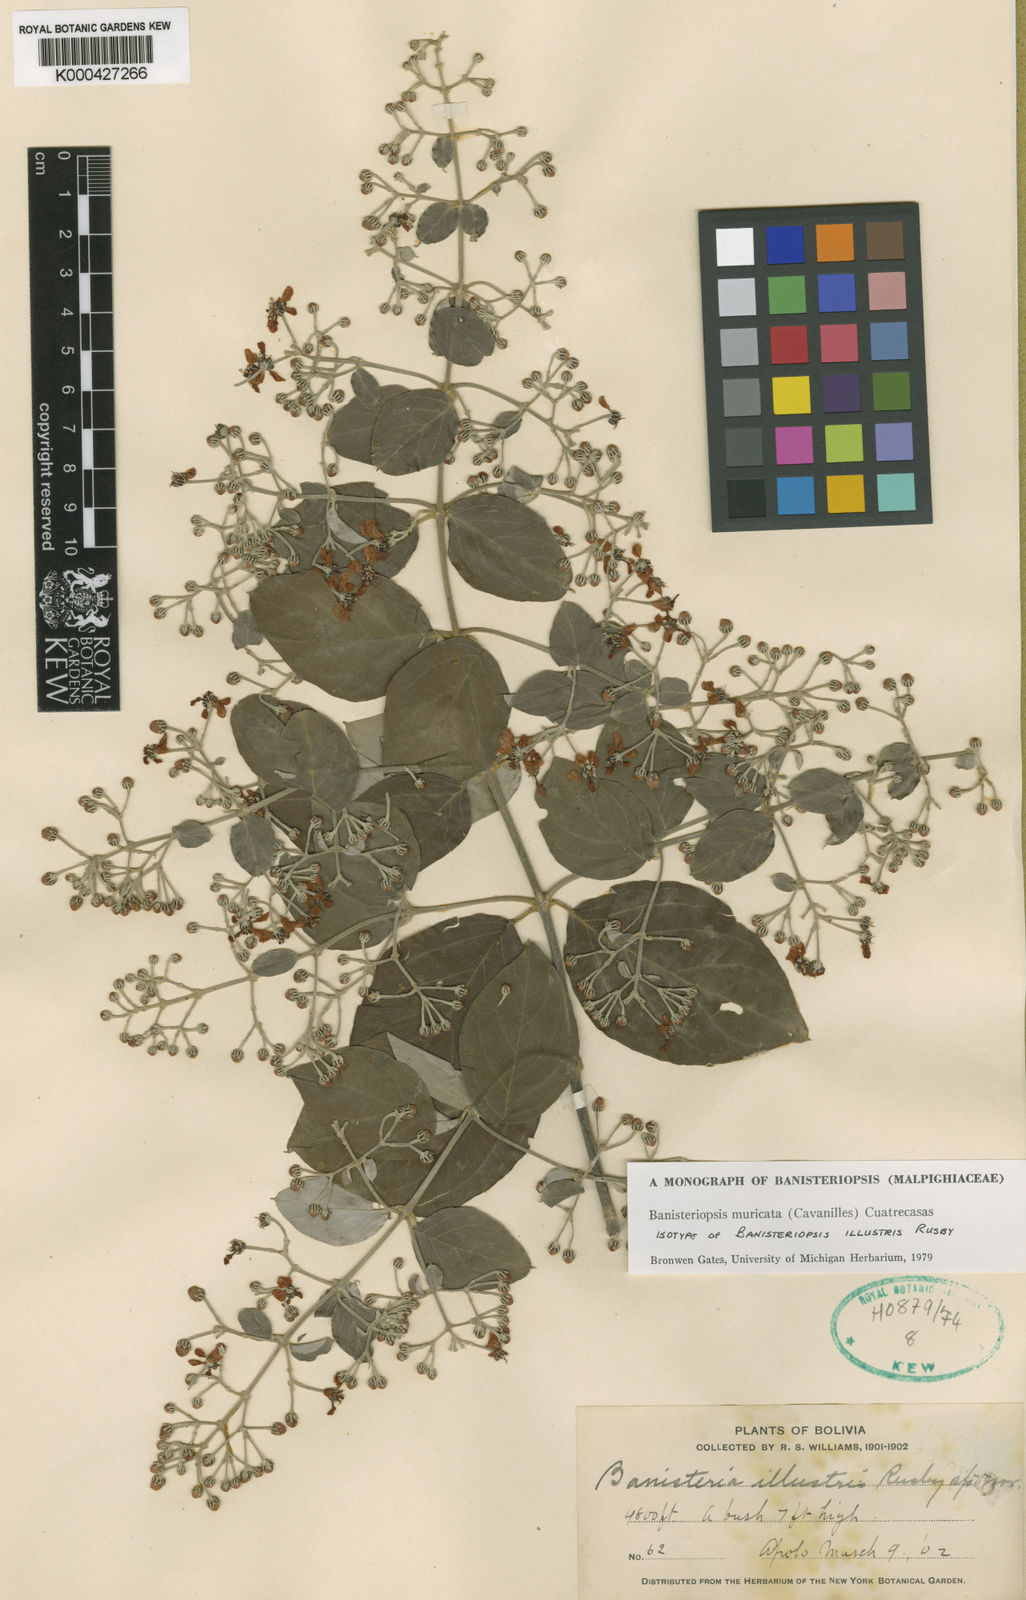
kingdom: Plantae
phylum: Tracheophyta
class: Magnoliopsida
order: Malpighiales
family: Malpighiaceae
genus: Banisteriopsis
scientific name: Banisteriopsis muricata
